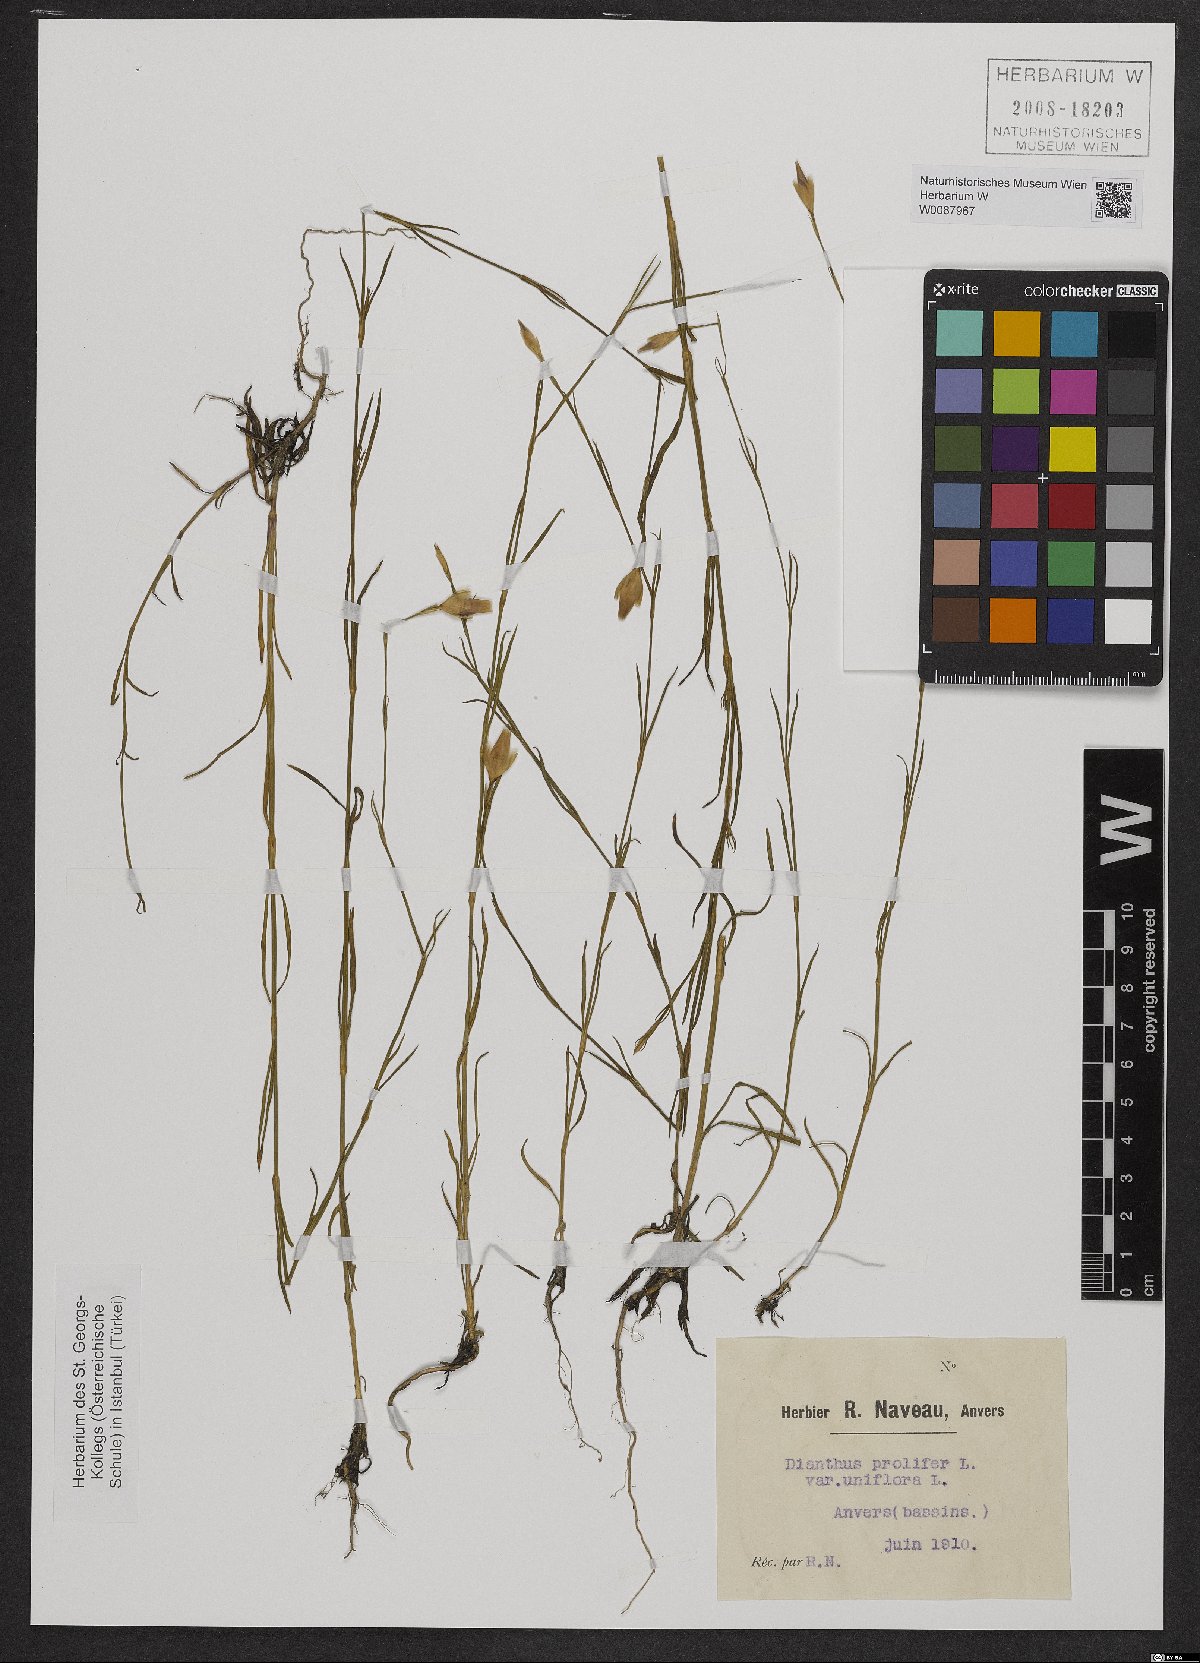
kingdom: Plantae
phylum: Tracheophyta
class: Magnoliopsida
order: Caryophyllales
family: Caryophyllaceae
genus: Petrorhagia
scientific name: Petrorhagia prolifera
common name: Proliferous pink
